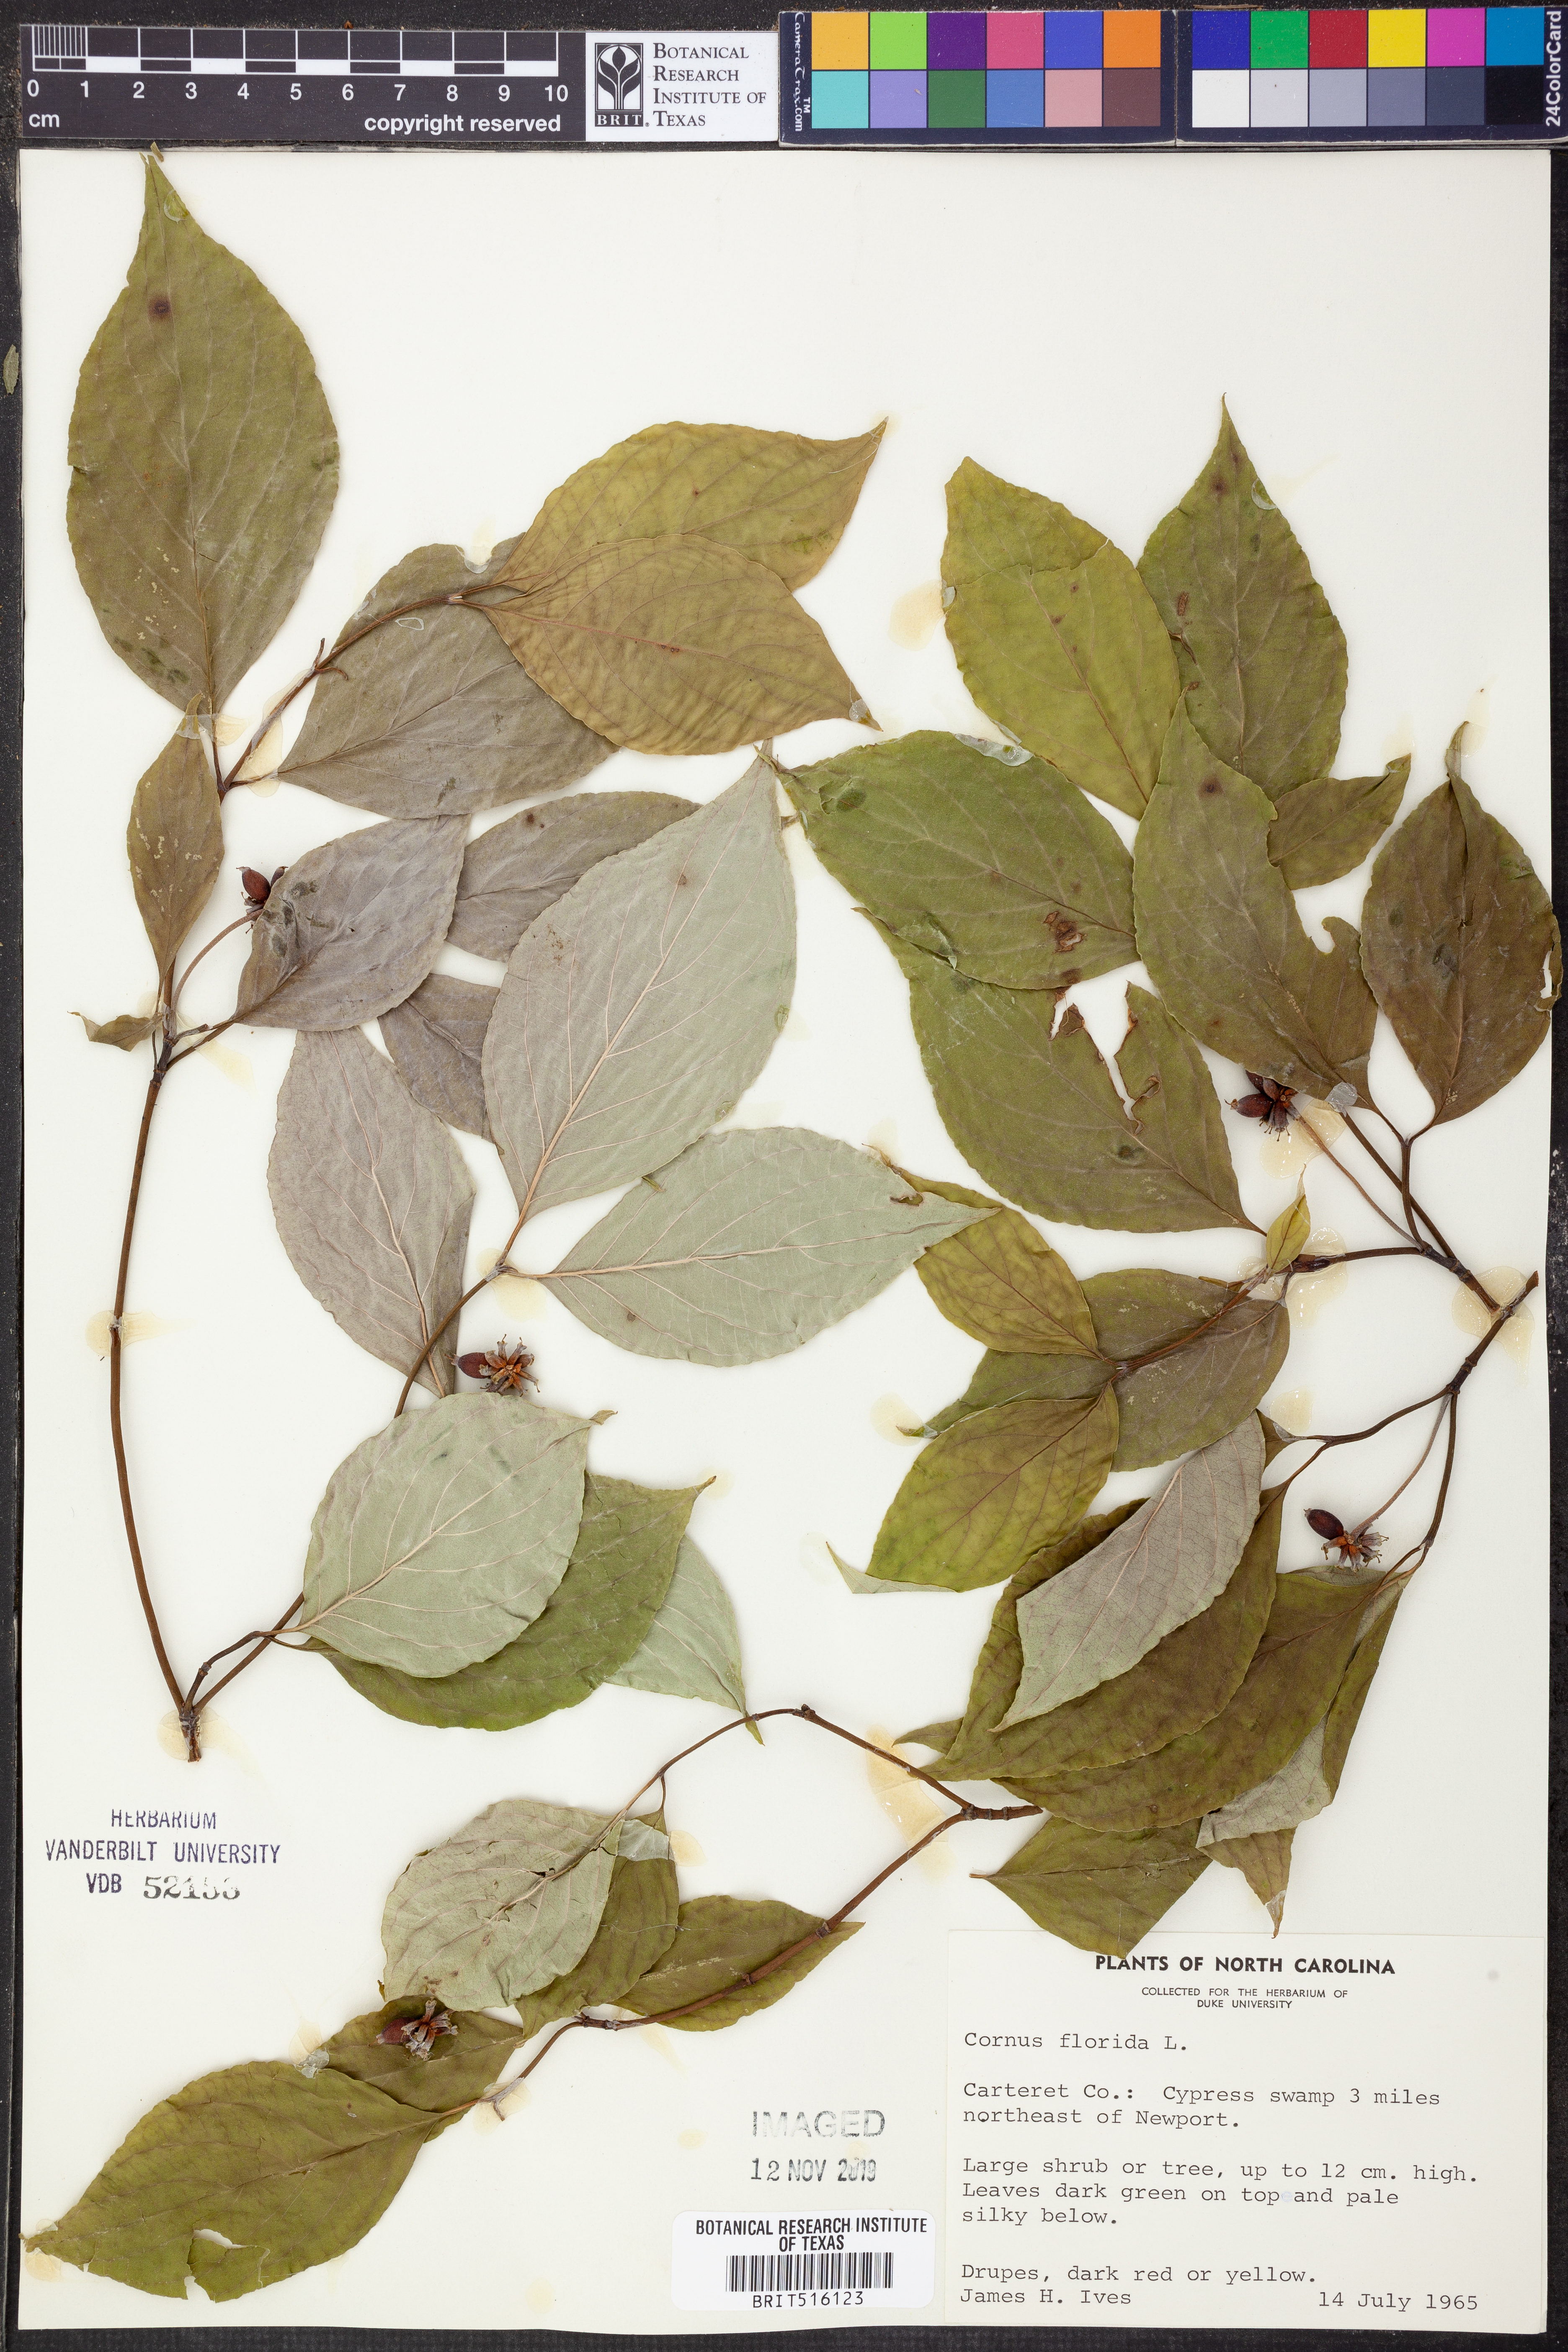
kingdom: Plantae
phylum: Tracheophyta
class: Magnoliopsida
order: Cornales
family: Cornaceae
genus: Cornus
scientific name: Cornus florida
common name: Flowering dogwood
